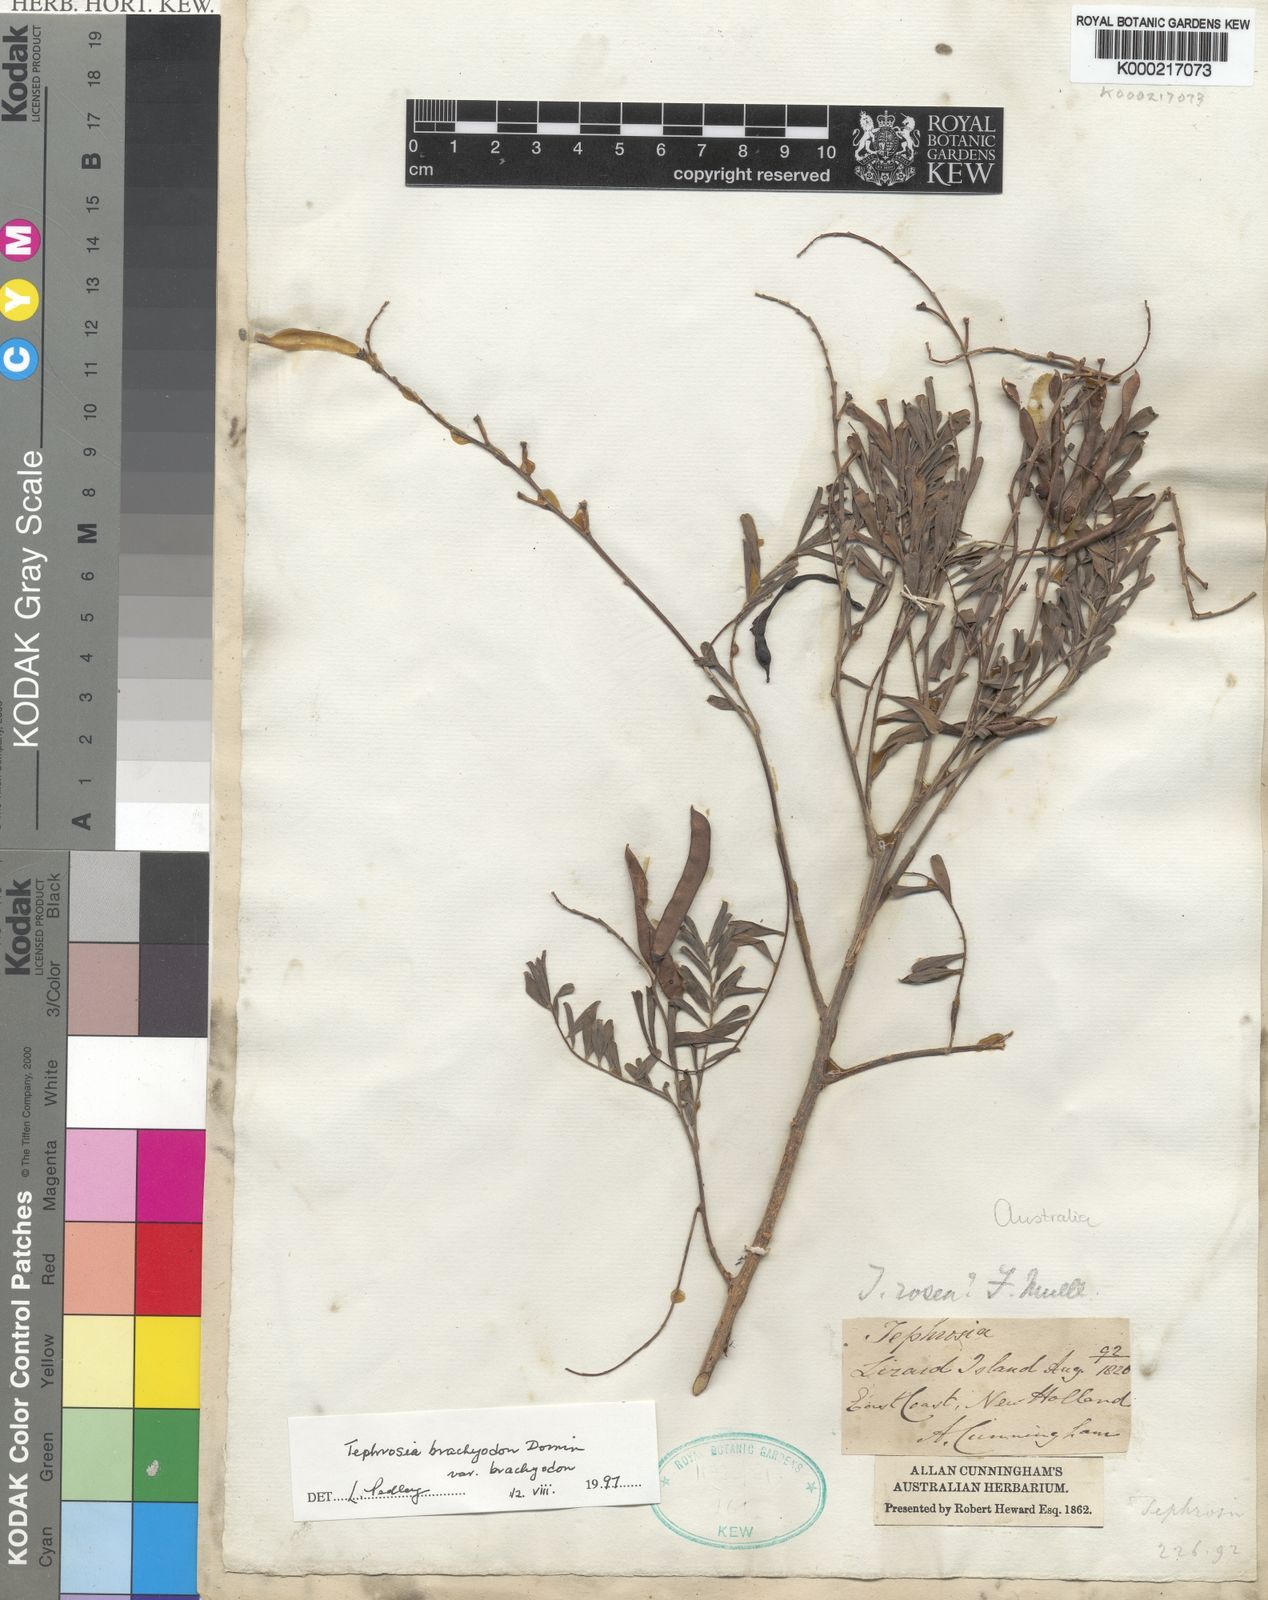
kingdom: Plantae
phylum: Tracheophyta
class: Magnoliopsida
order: Fabales
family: Fabaceae
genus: Tephrosia
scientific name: Tephrosia brachyodon
